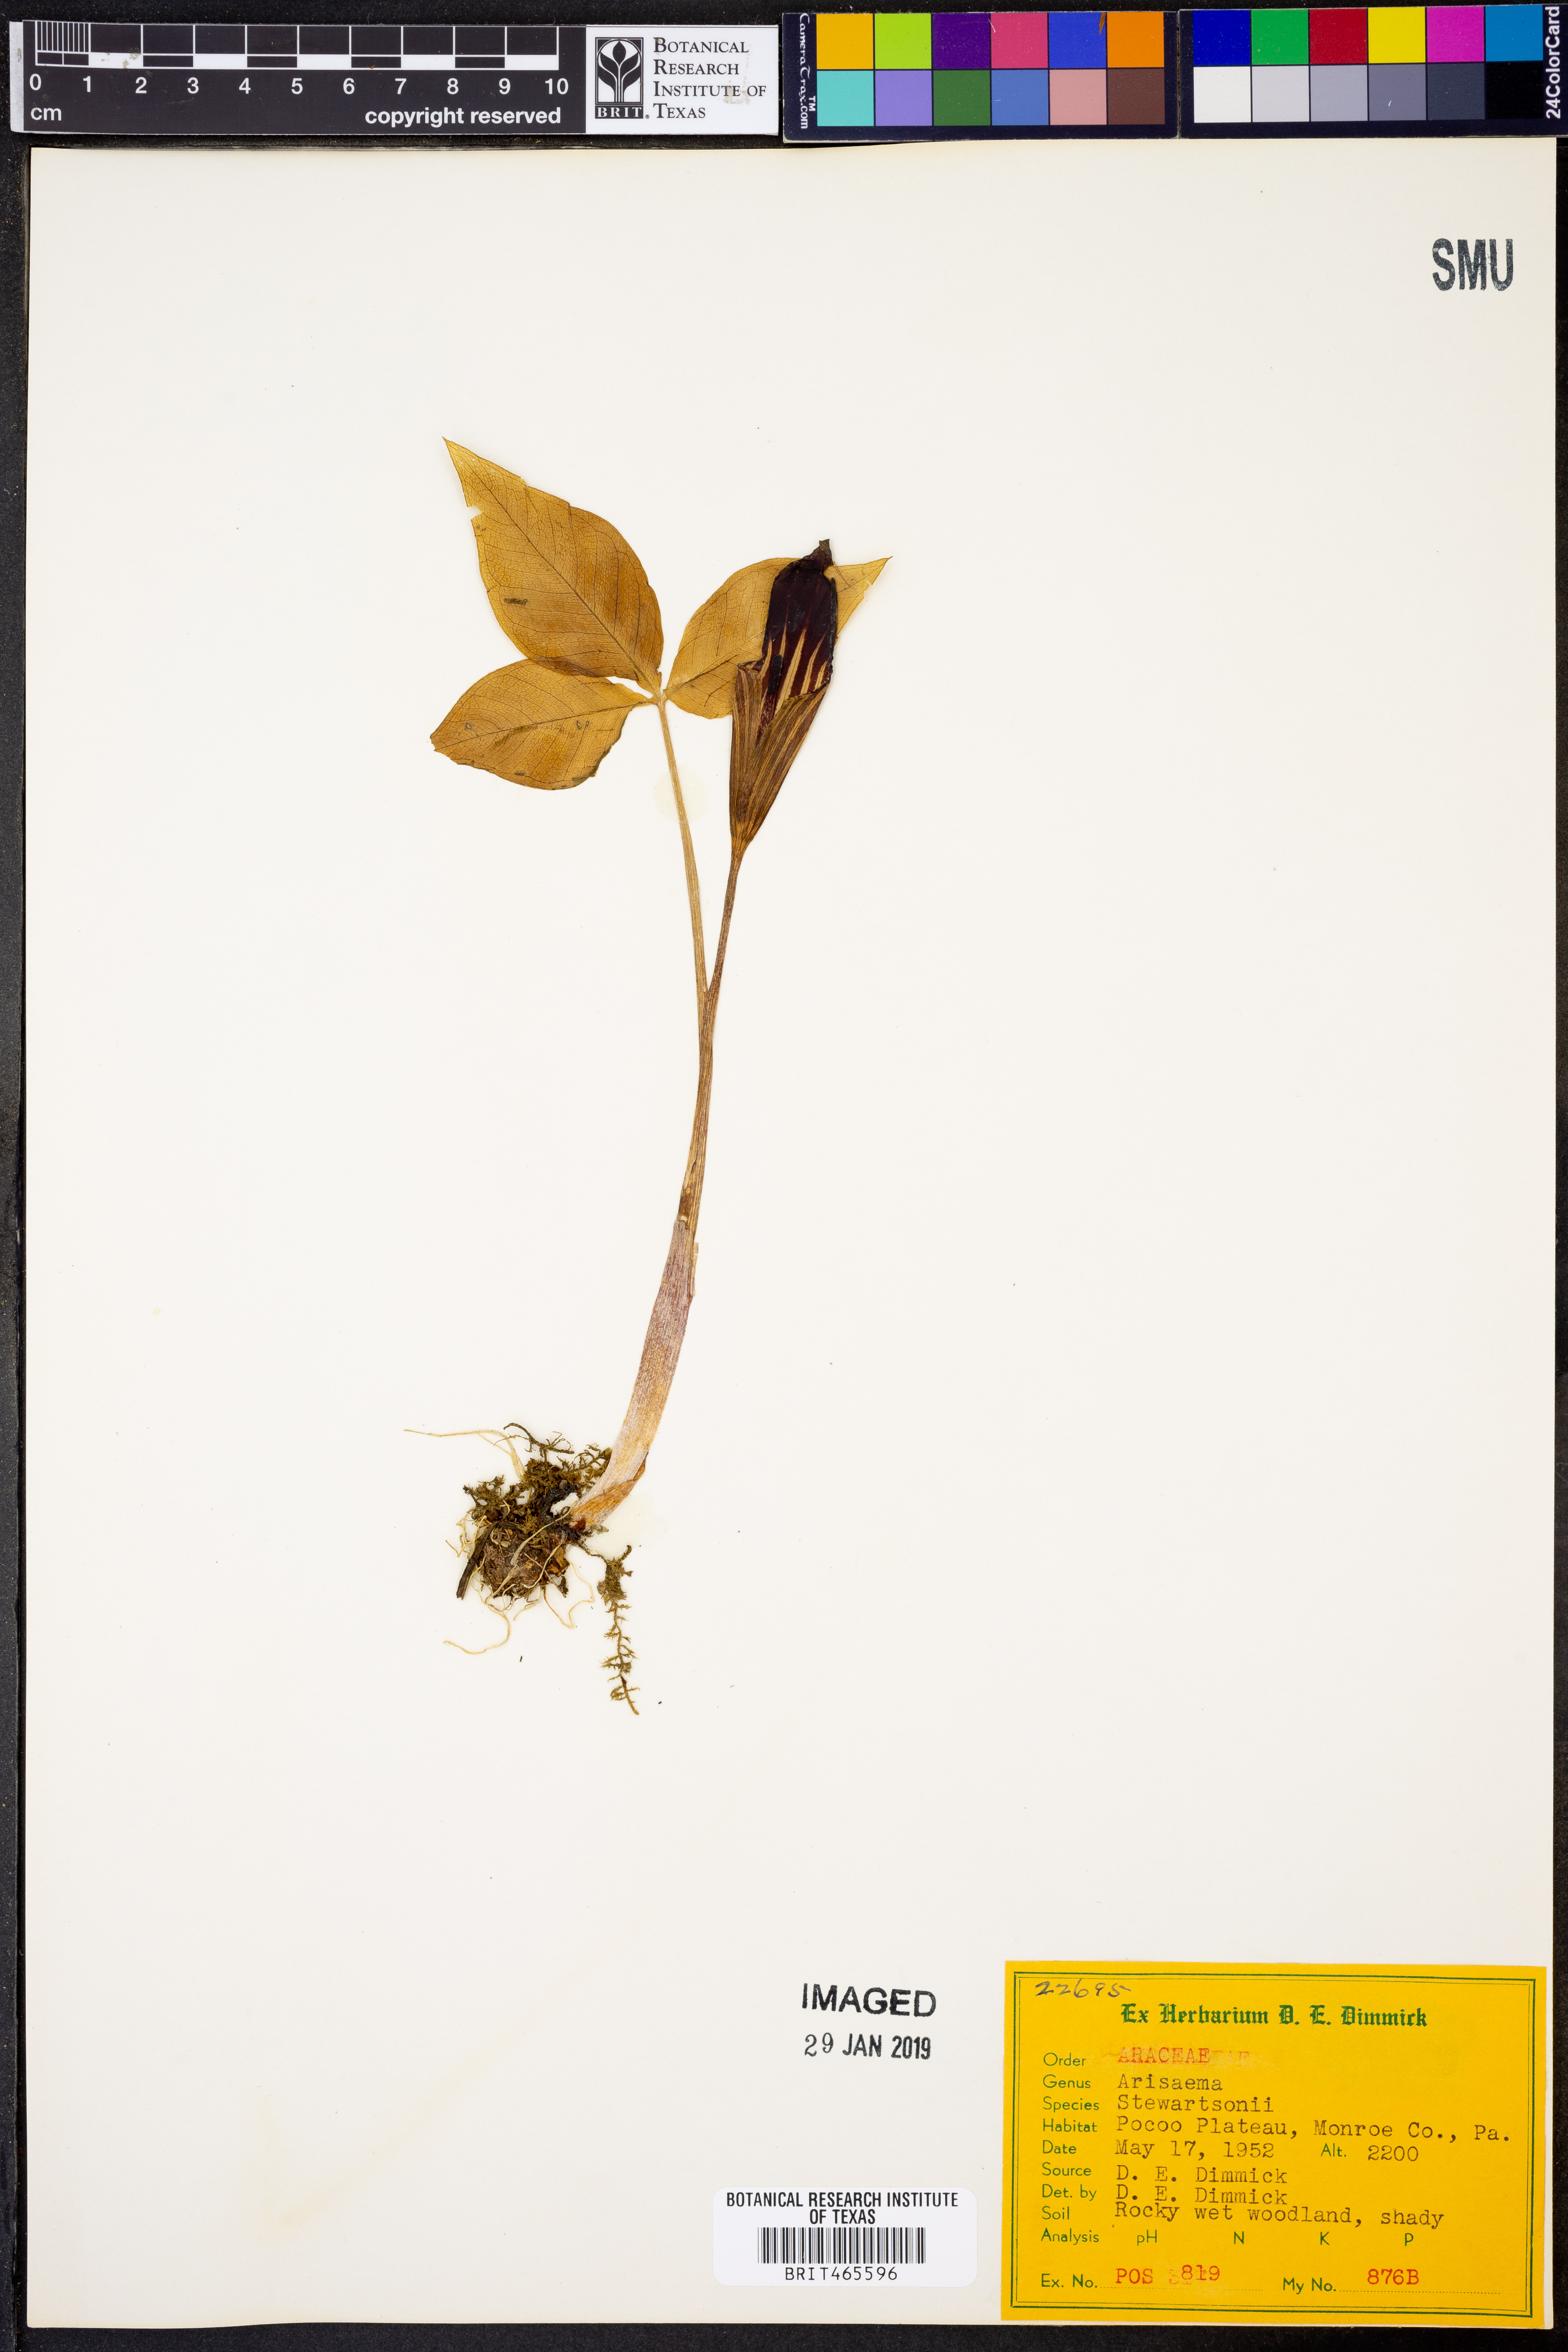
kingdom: Plantae
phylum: Tracheophyta
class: Liliopsida
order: Alismatales
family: Araceae
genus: Arisaema
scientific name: Arisaema stewardsonii
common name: Swamp jack-in-the-pulpit
